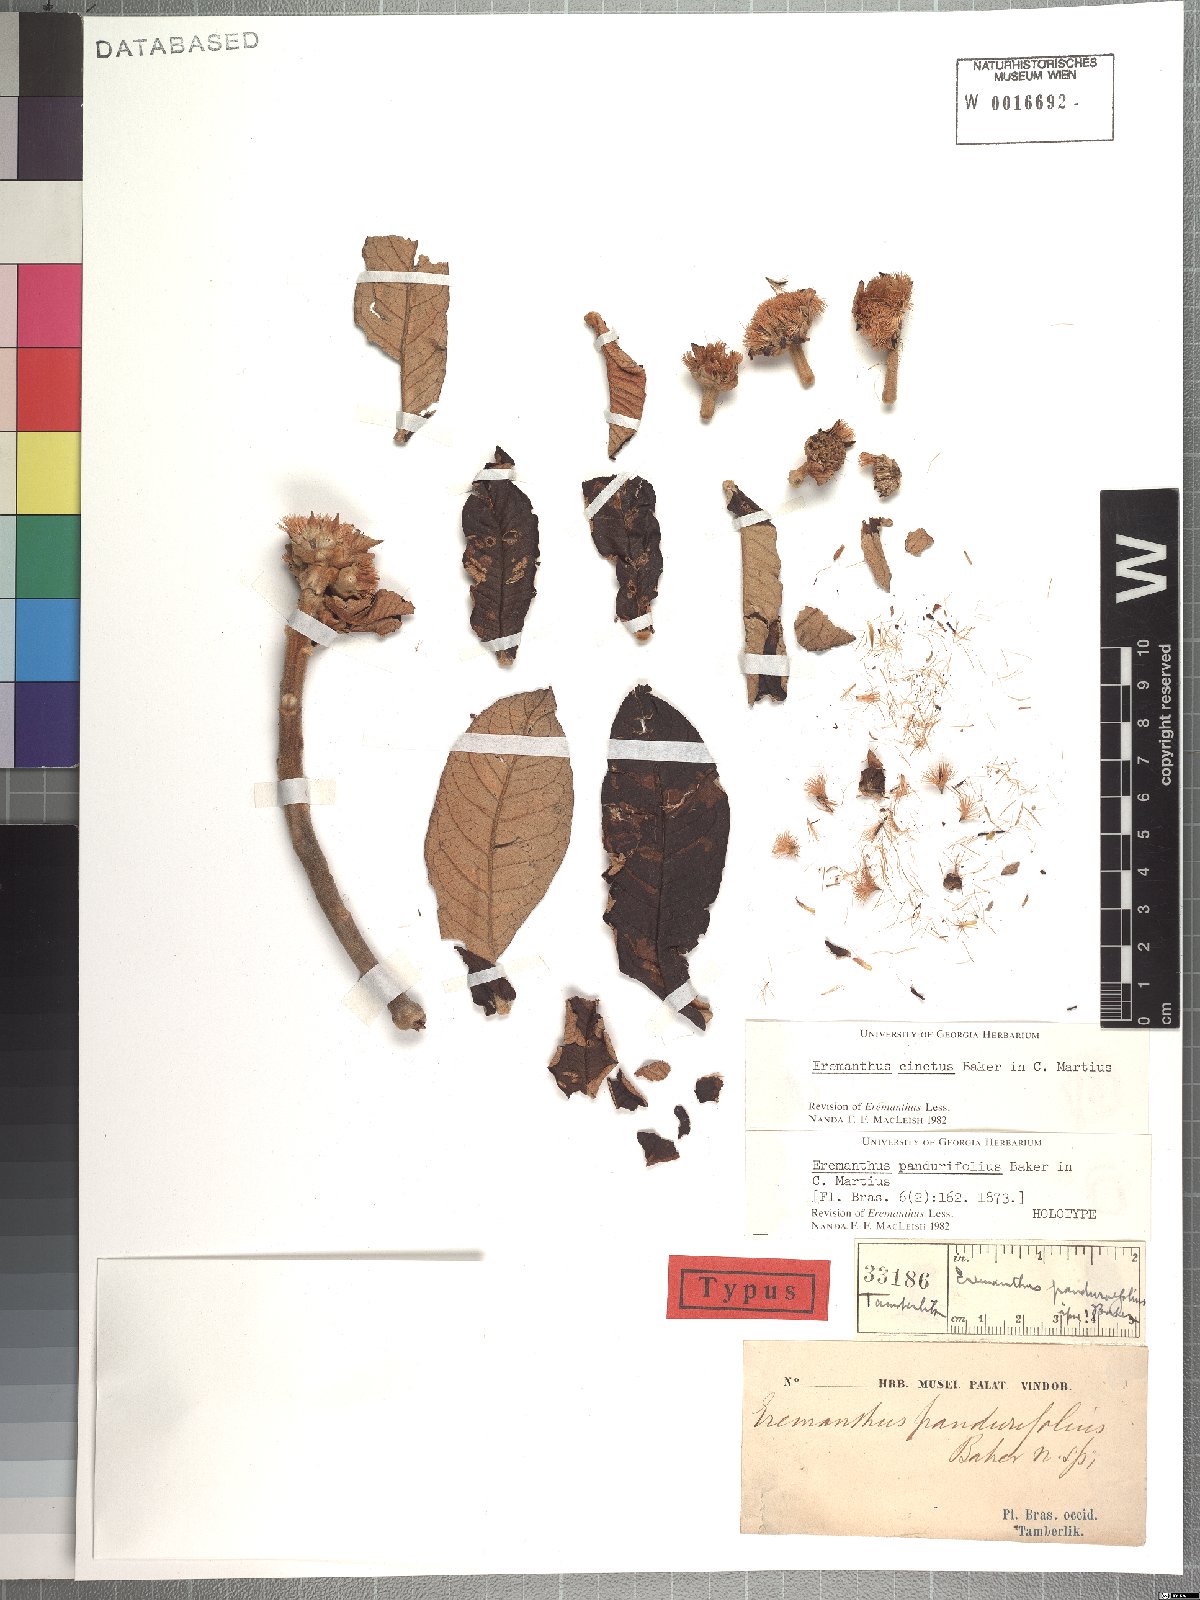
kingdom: Plantae
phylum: Tracheophyta
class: Magnoliopsida
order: Asterales
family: Asteraceae
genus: Eremanthus
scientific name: Eremanthus cinctus
